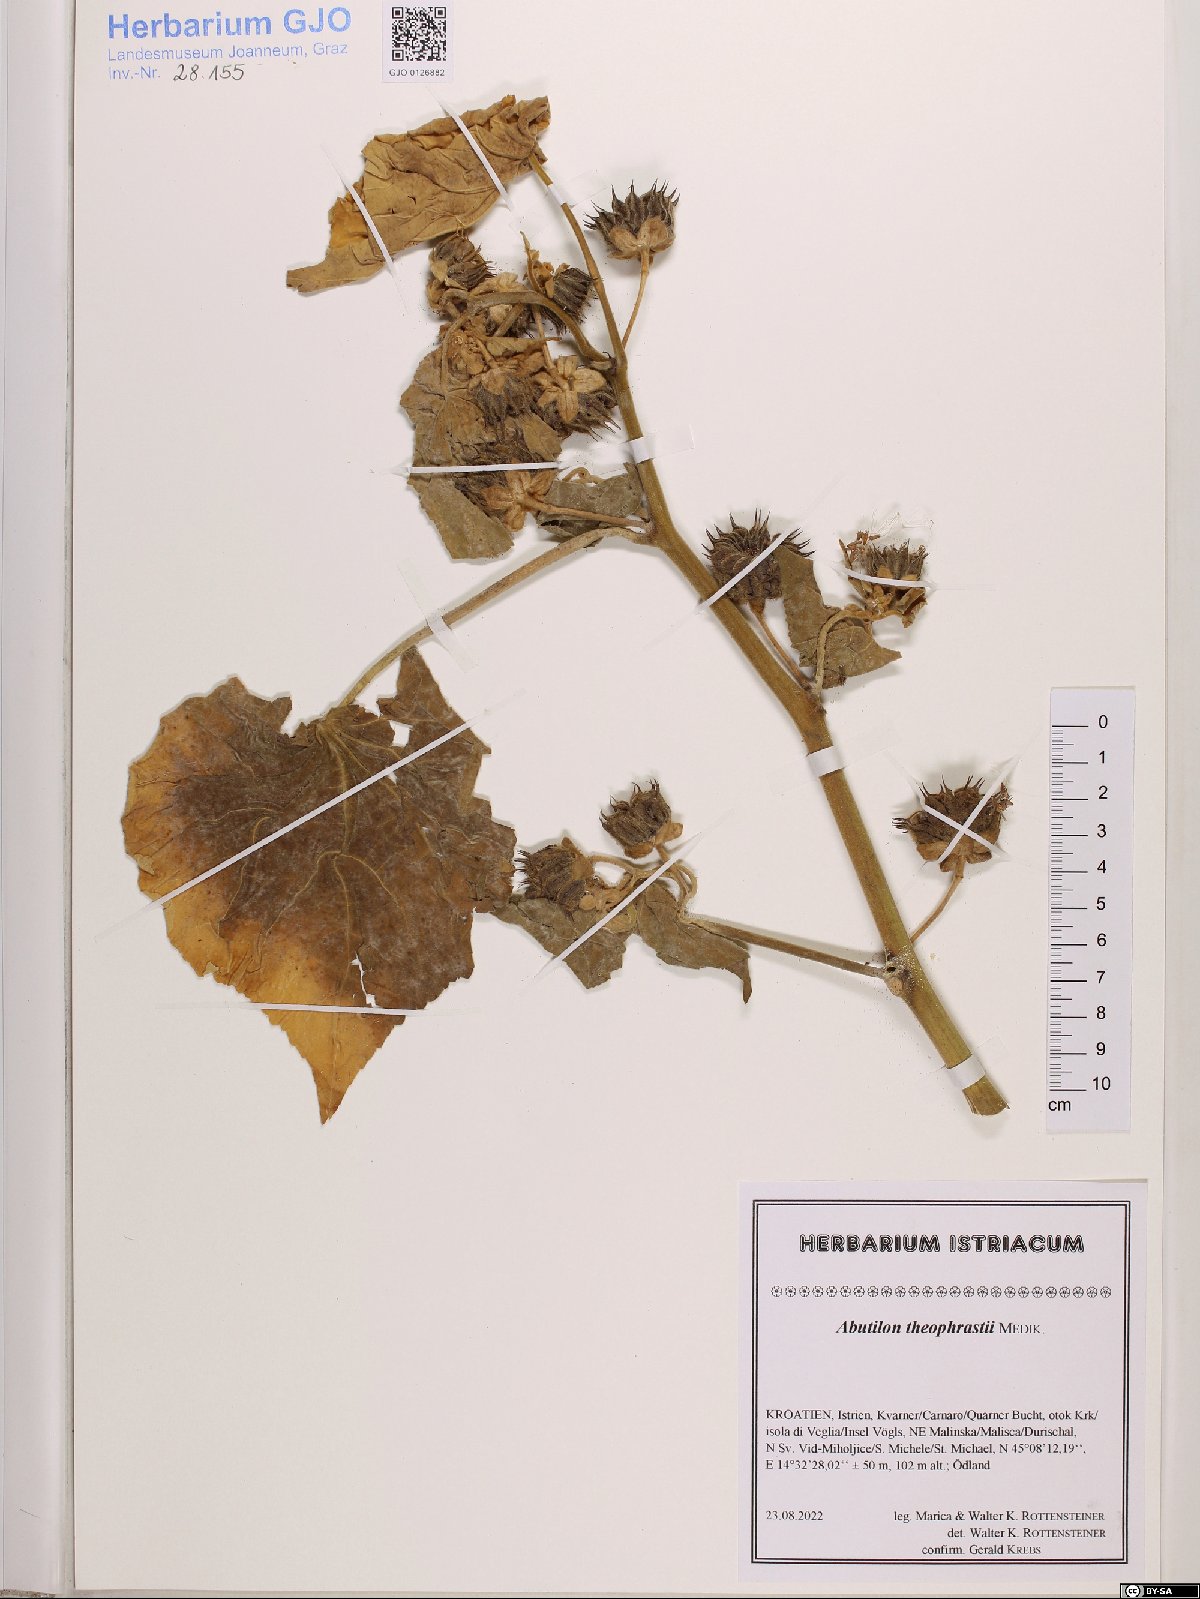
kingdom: Plantae
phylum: Tracheophyta
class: Magnoliopsida
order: Malvales
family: Malvaceae
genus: Abutilon
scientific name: Abutilon theophrasti
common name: Velvetleaf
